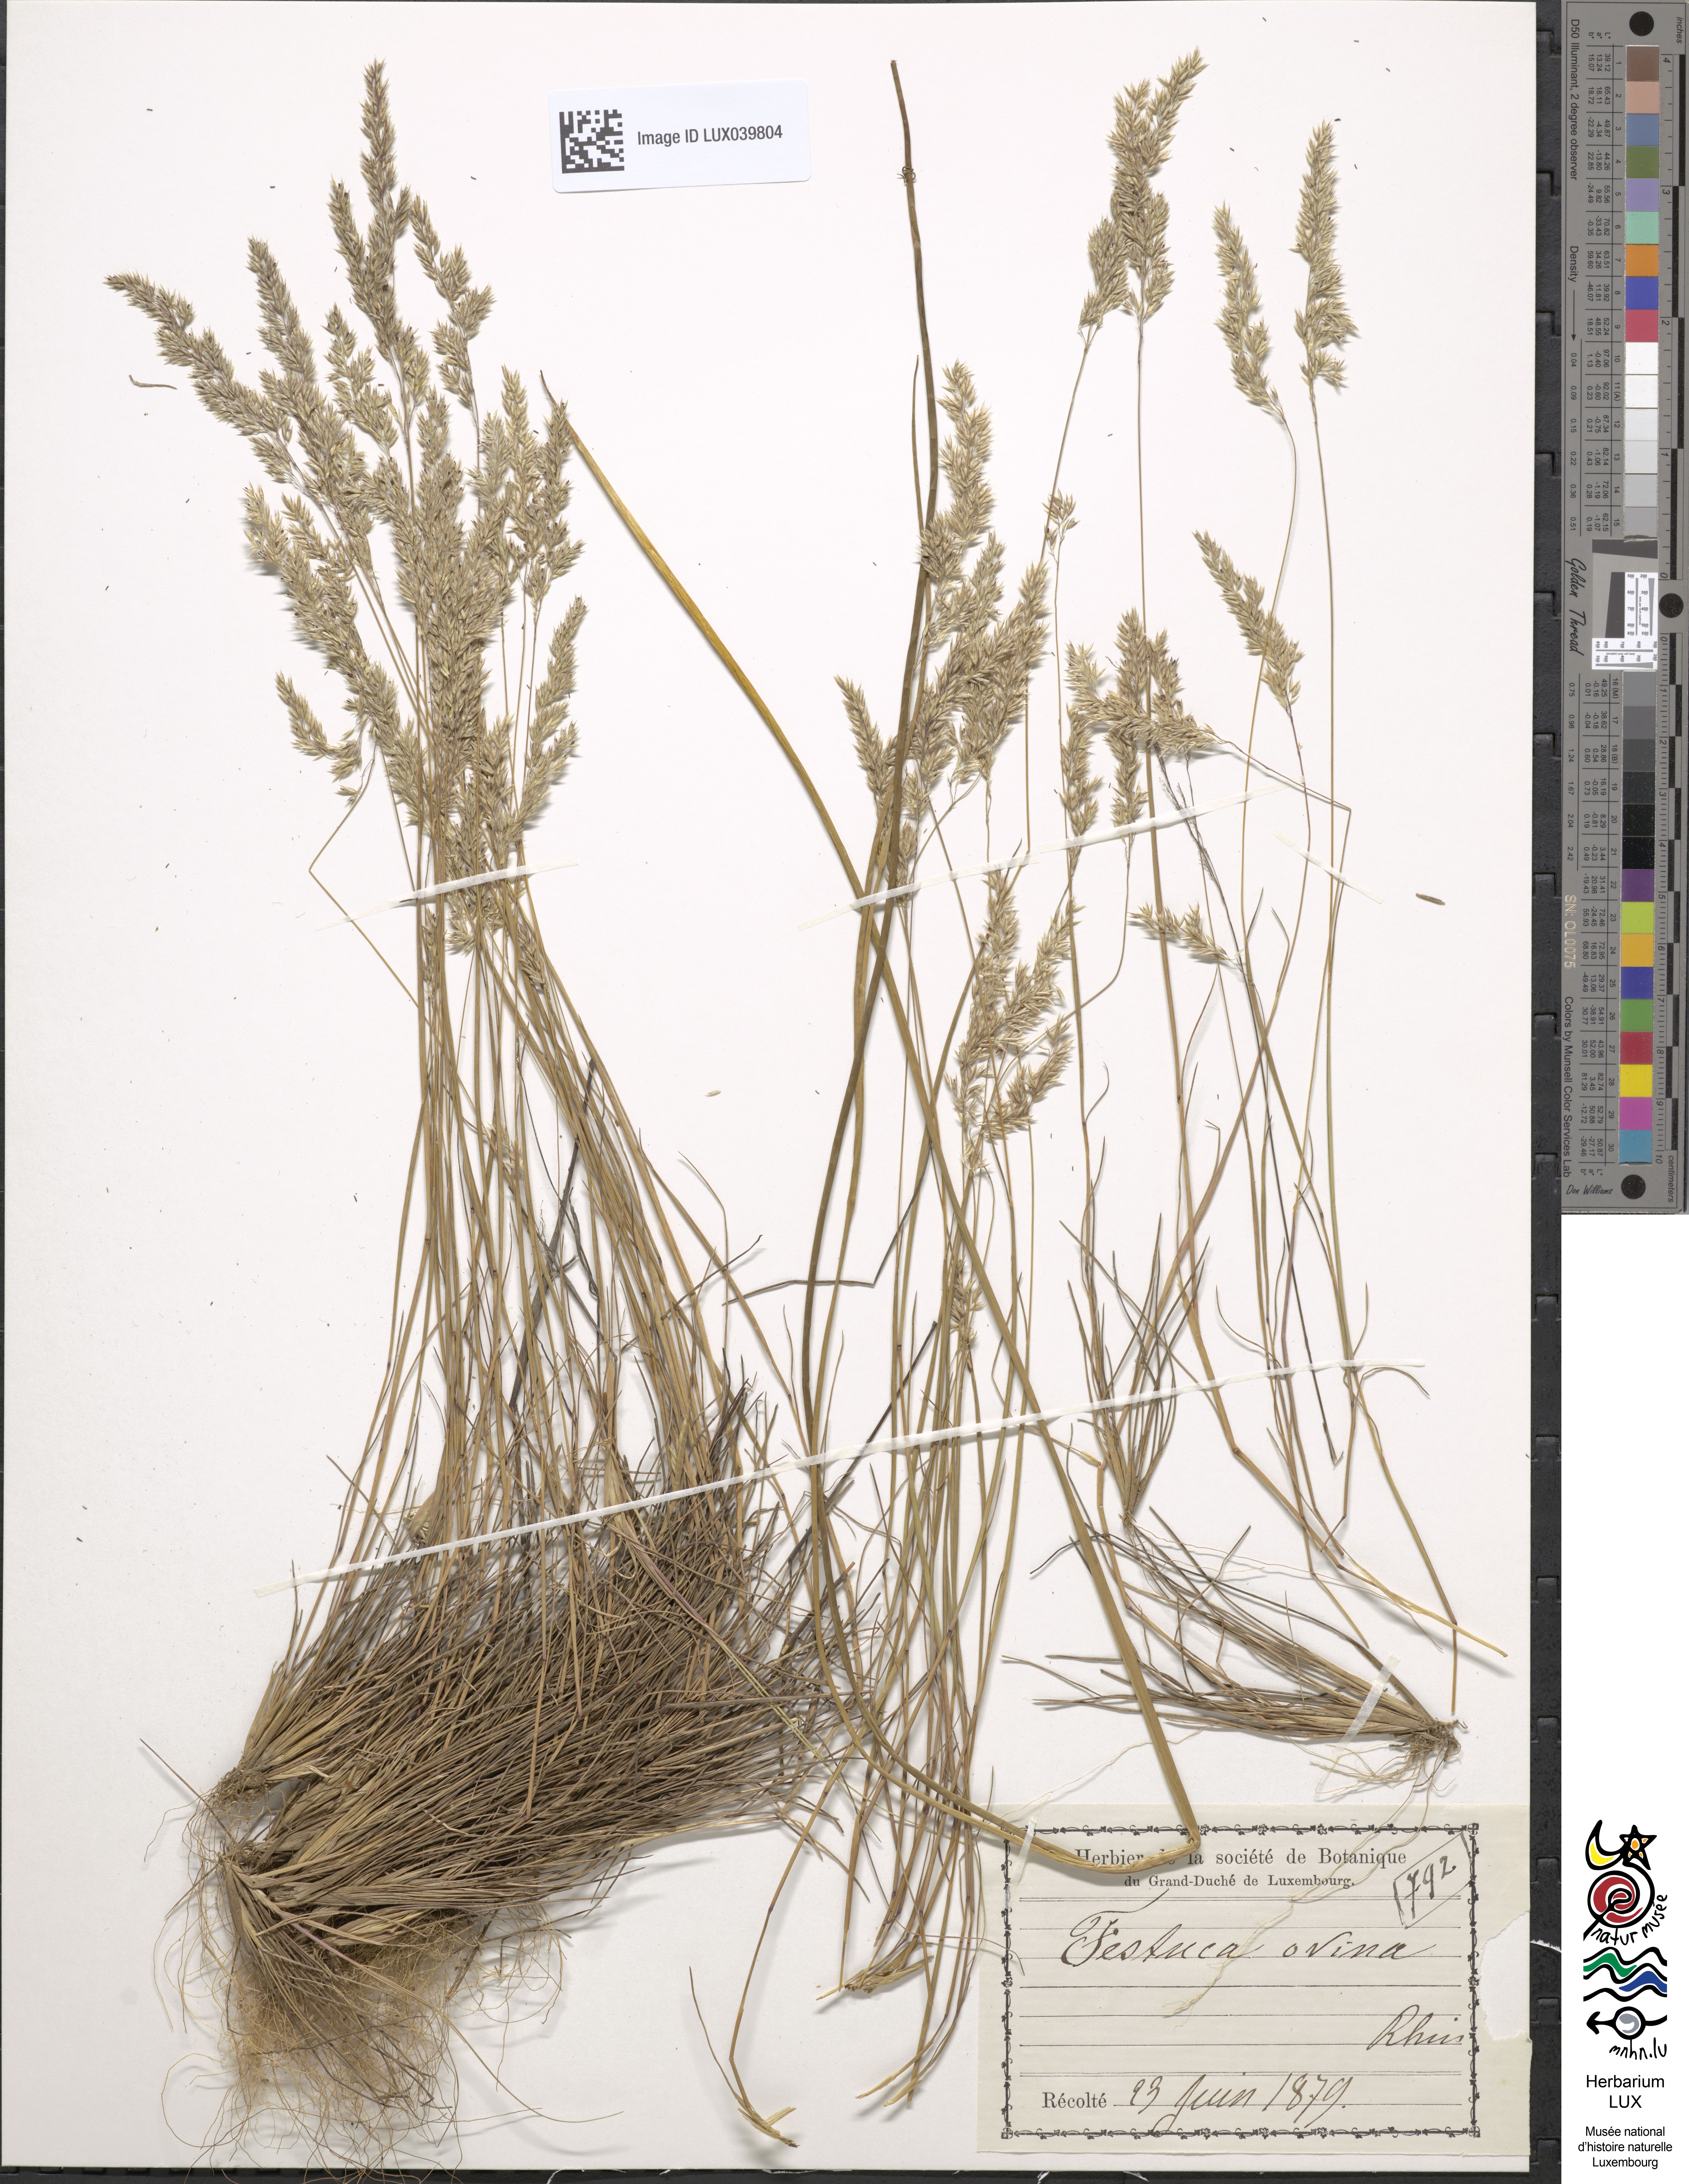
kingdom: Plantae
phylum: Tracheophyta
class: Liliopsida
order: Poales
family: Poaceae
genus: Festuca
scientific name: Festuca ovina
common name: Sheep fescue
